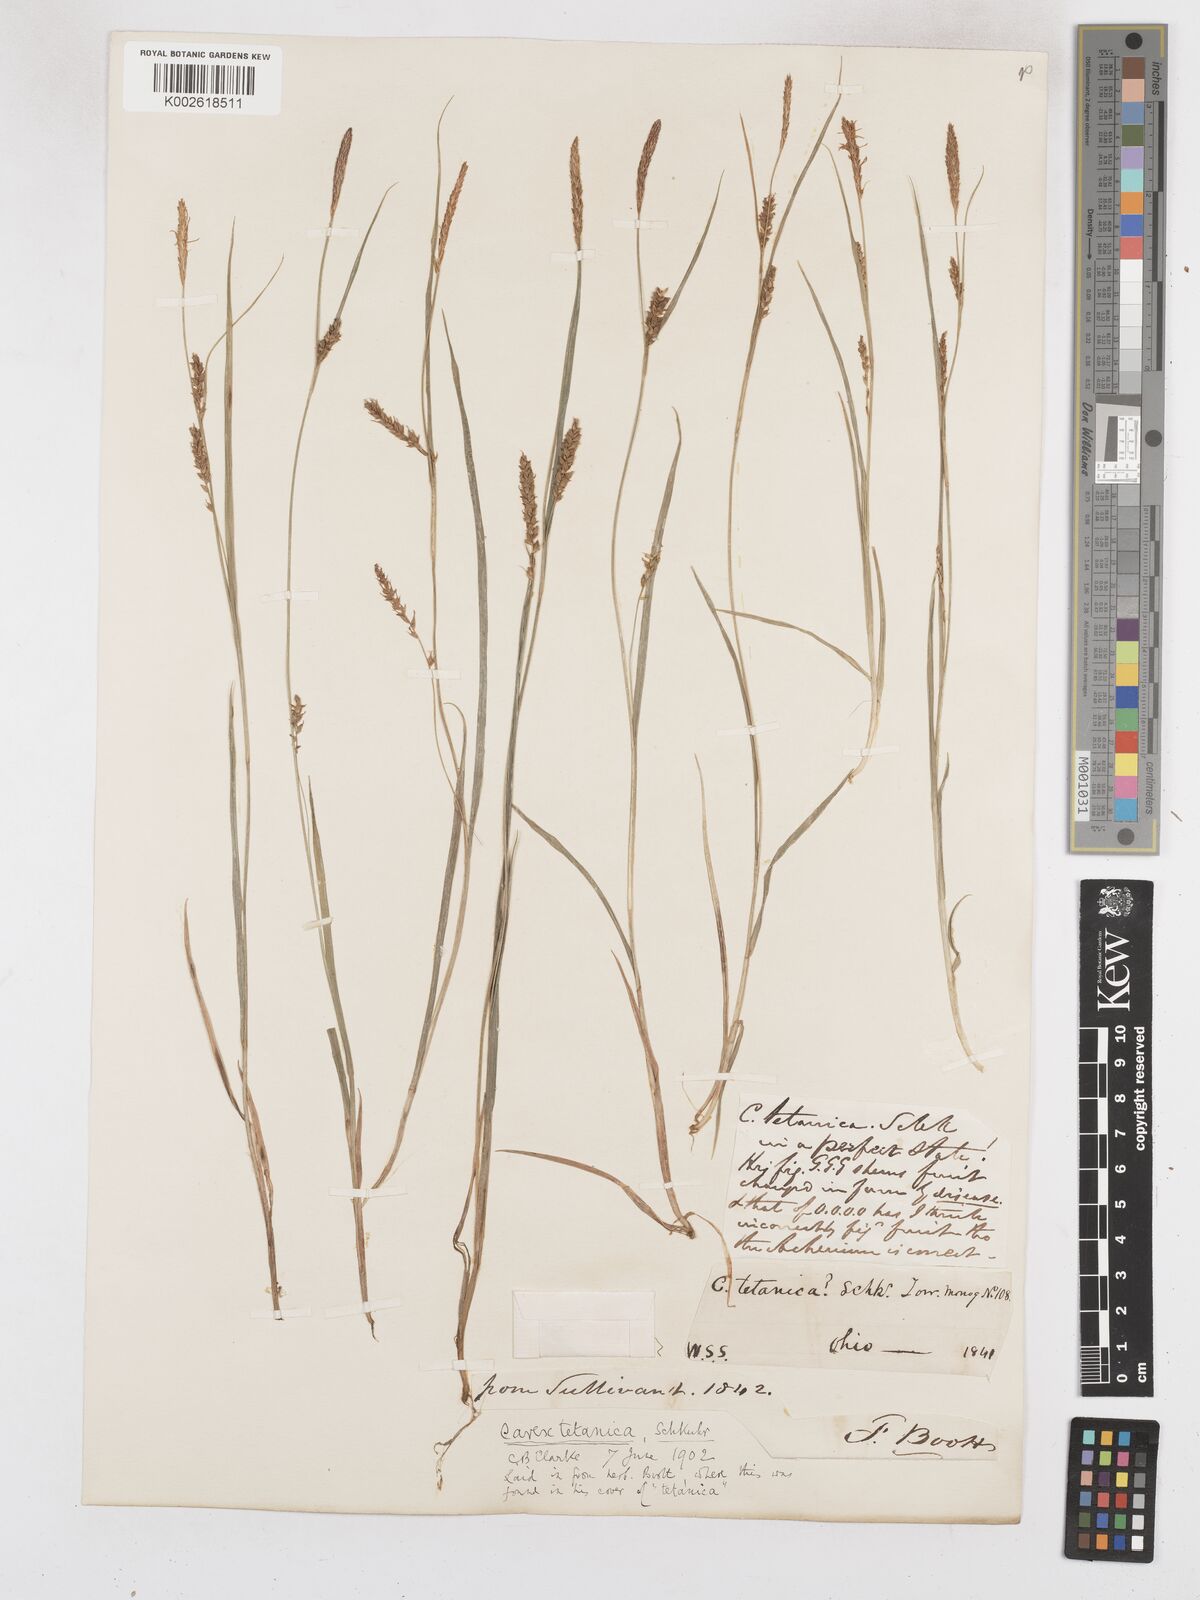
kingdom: Plantae
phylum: Tracheophyta
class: Liliopsida
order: Poales
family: Cyperaceae
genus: Carex
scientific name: Carex tetanica
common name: Rigid sedge
